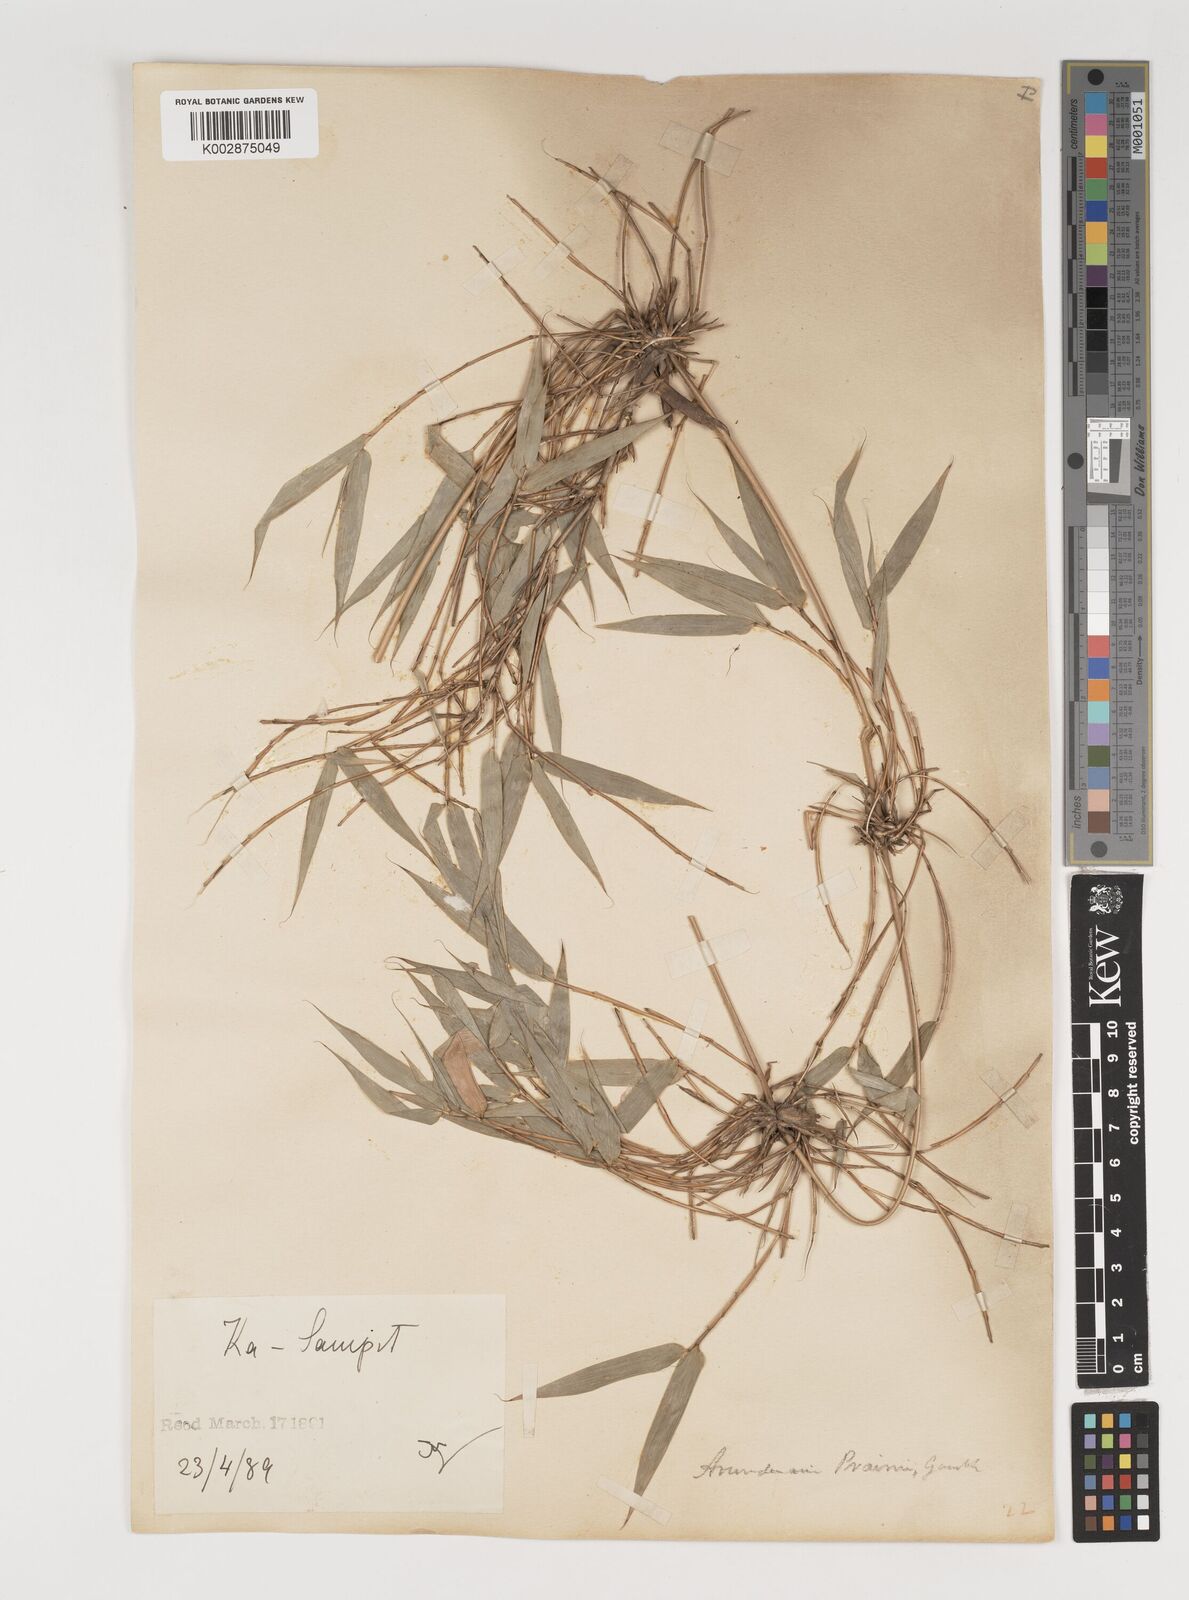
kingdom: Plantae
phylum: Tracheophyta
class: Liliopsida
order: Poales
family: Poaceae
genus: Neomicrocalamus
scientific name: Neomicrocalamus prainii
